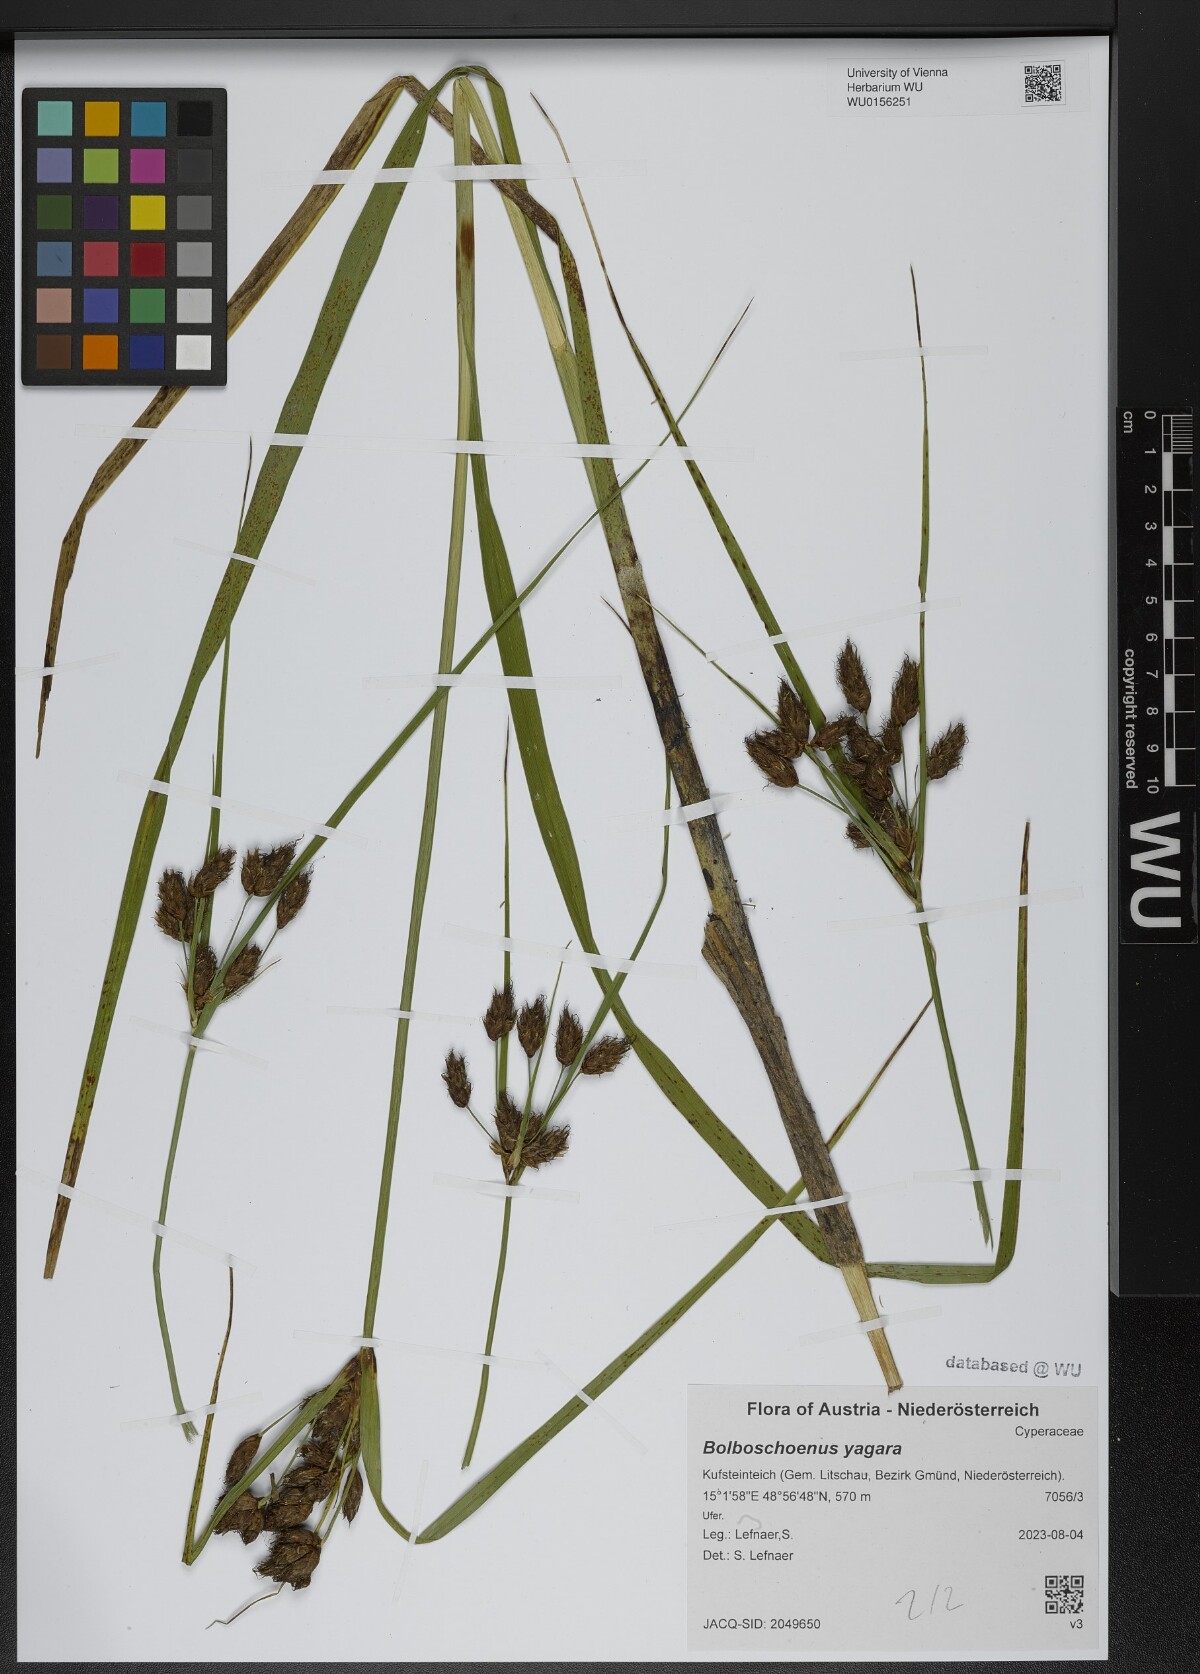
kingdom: Plantae
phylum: Tracheophyta
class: Liliopsida
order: Poales
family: Cyperaceae
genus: Bolboschoenus
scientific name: Bolboschoenus yagara
